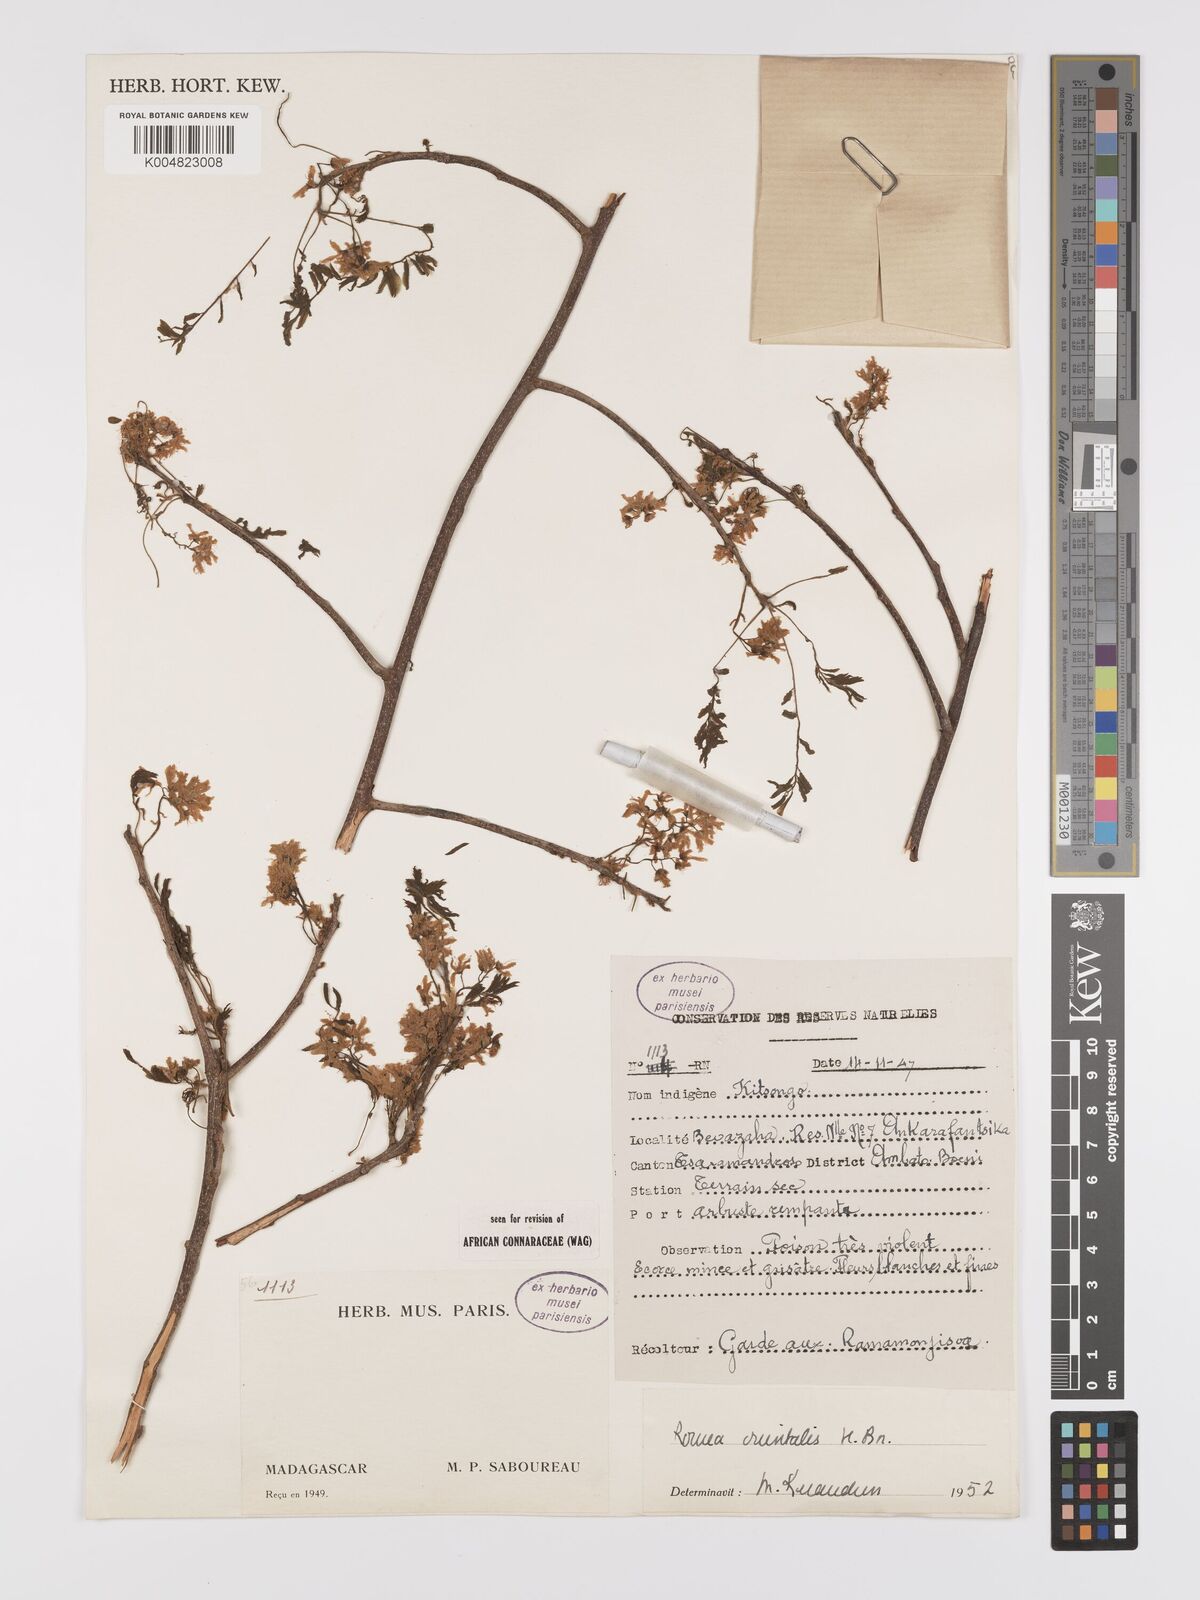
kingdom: Plantae
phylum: Tracheophyta
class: Magnoliopsida
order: Oxalidales
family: Connaraceae
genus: Rourea
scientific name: Rourea orientalis
